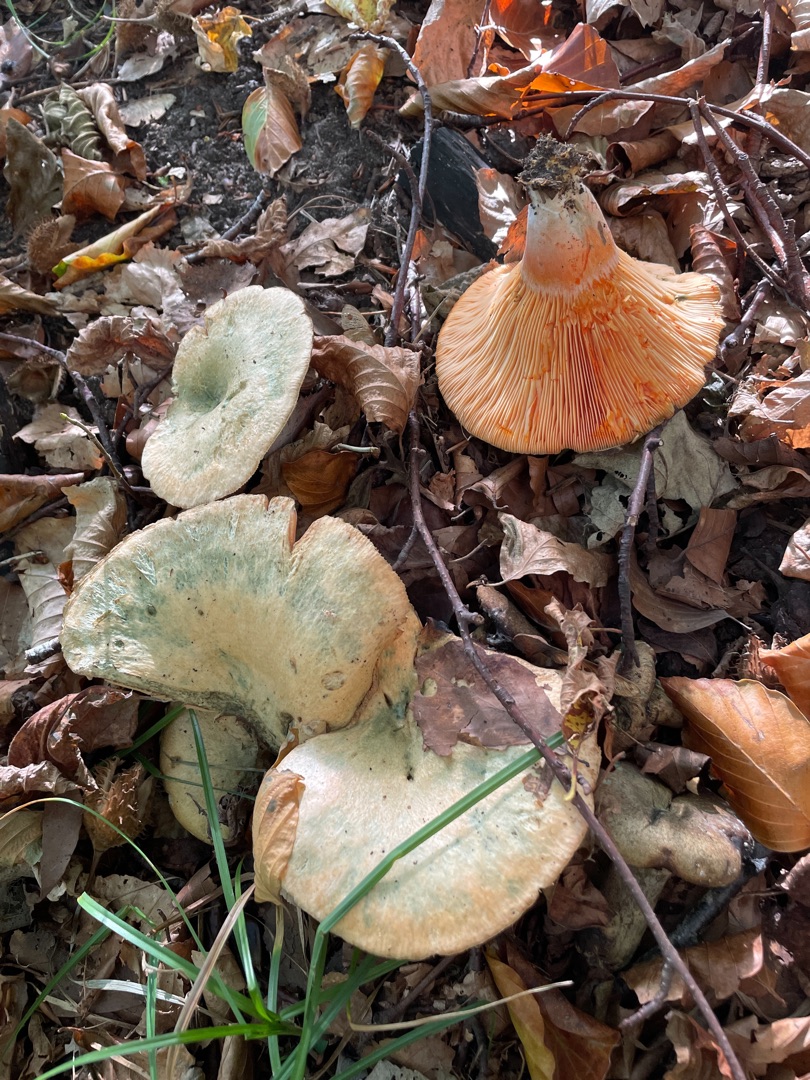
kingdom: Fungi
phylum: Basidiomycota
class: Agaricomycetes
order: Russulales
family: Russulaceae
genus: Lactarius
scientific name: Lactarius deterrimus
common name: Gran-mælkehat
